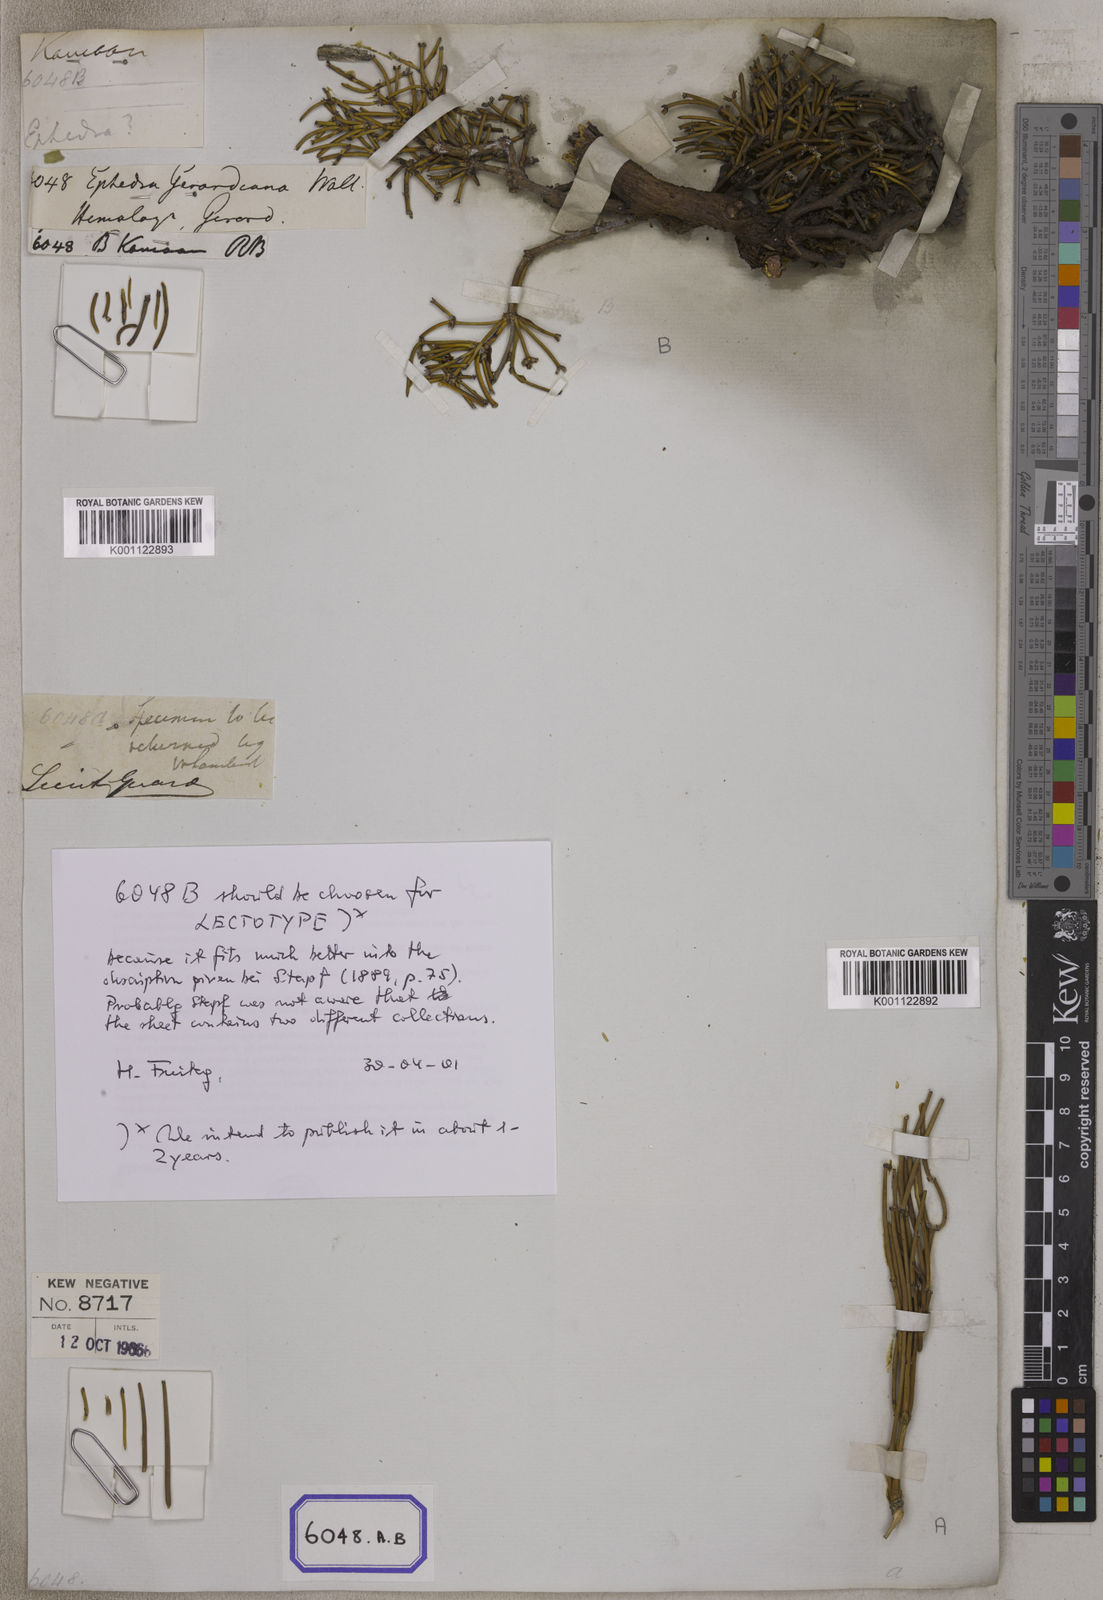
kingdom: Plantae
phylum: Tracheophyta
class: Gnetopsida
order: Ephedrales
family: Ephedraceae
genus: Ephedra
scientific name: Ephedra
